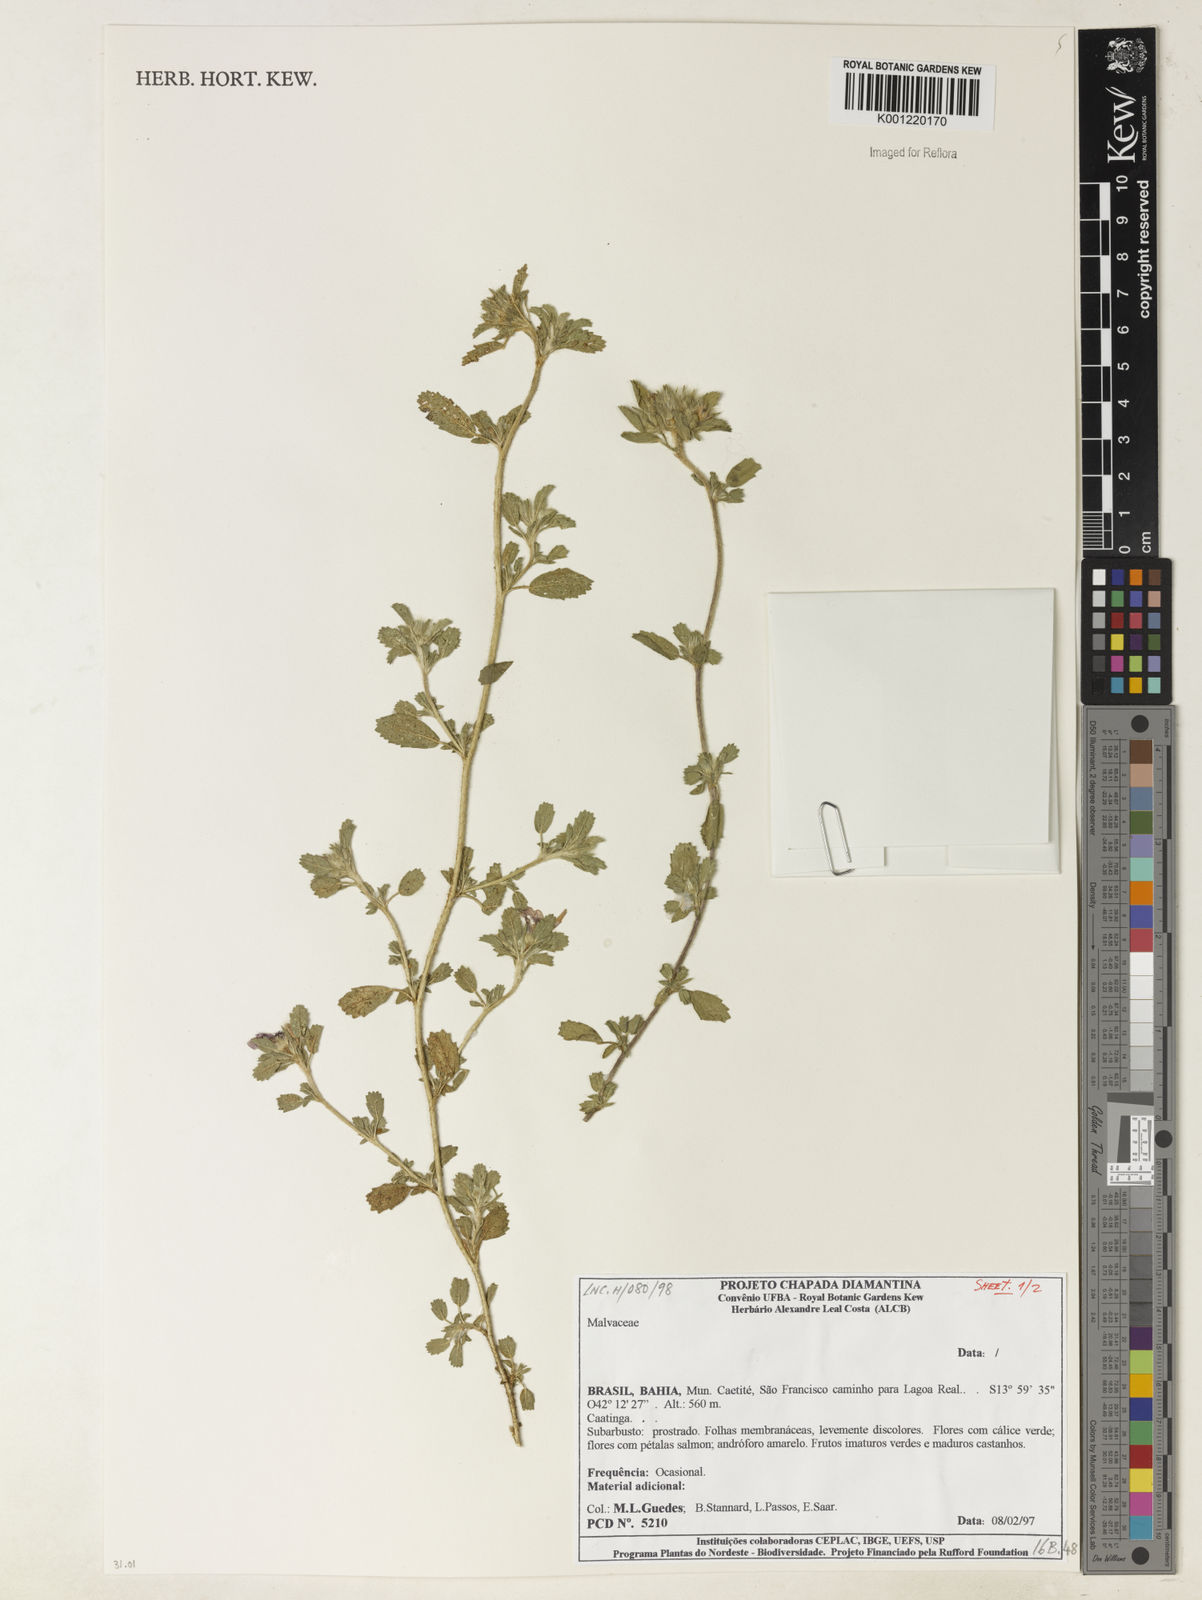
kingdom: Plantae
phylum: Tracheophyta
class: Magnoliopsida
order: Malvales
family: Malvaceae
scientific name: Malvaceae
